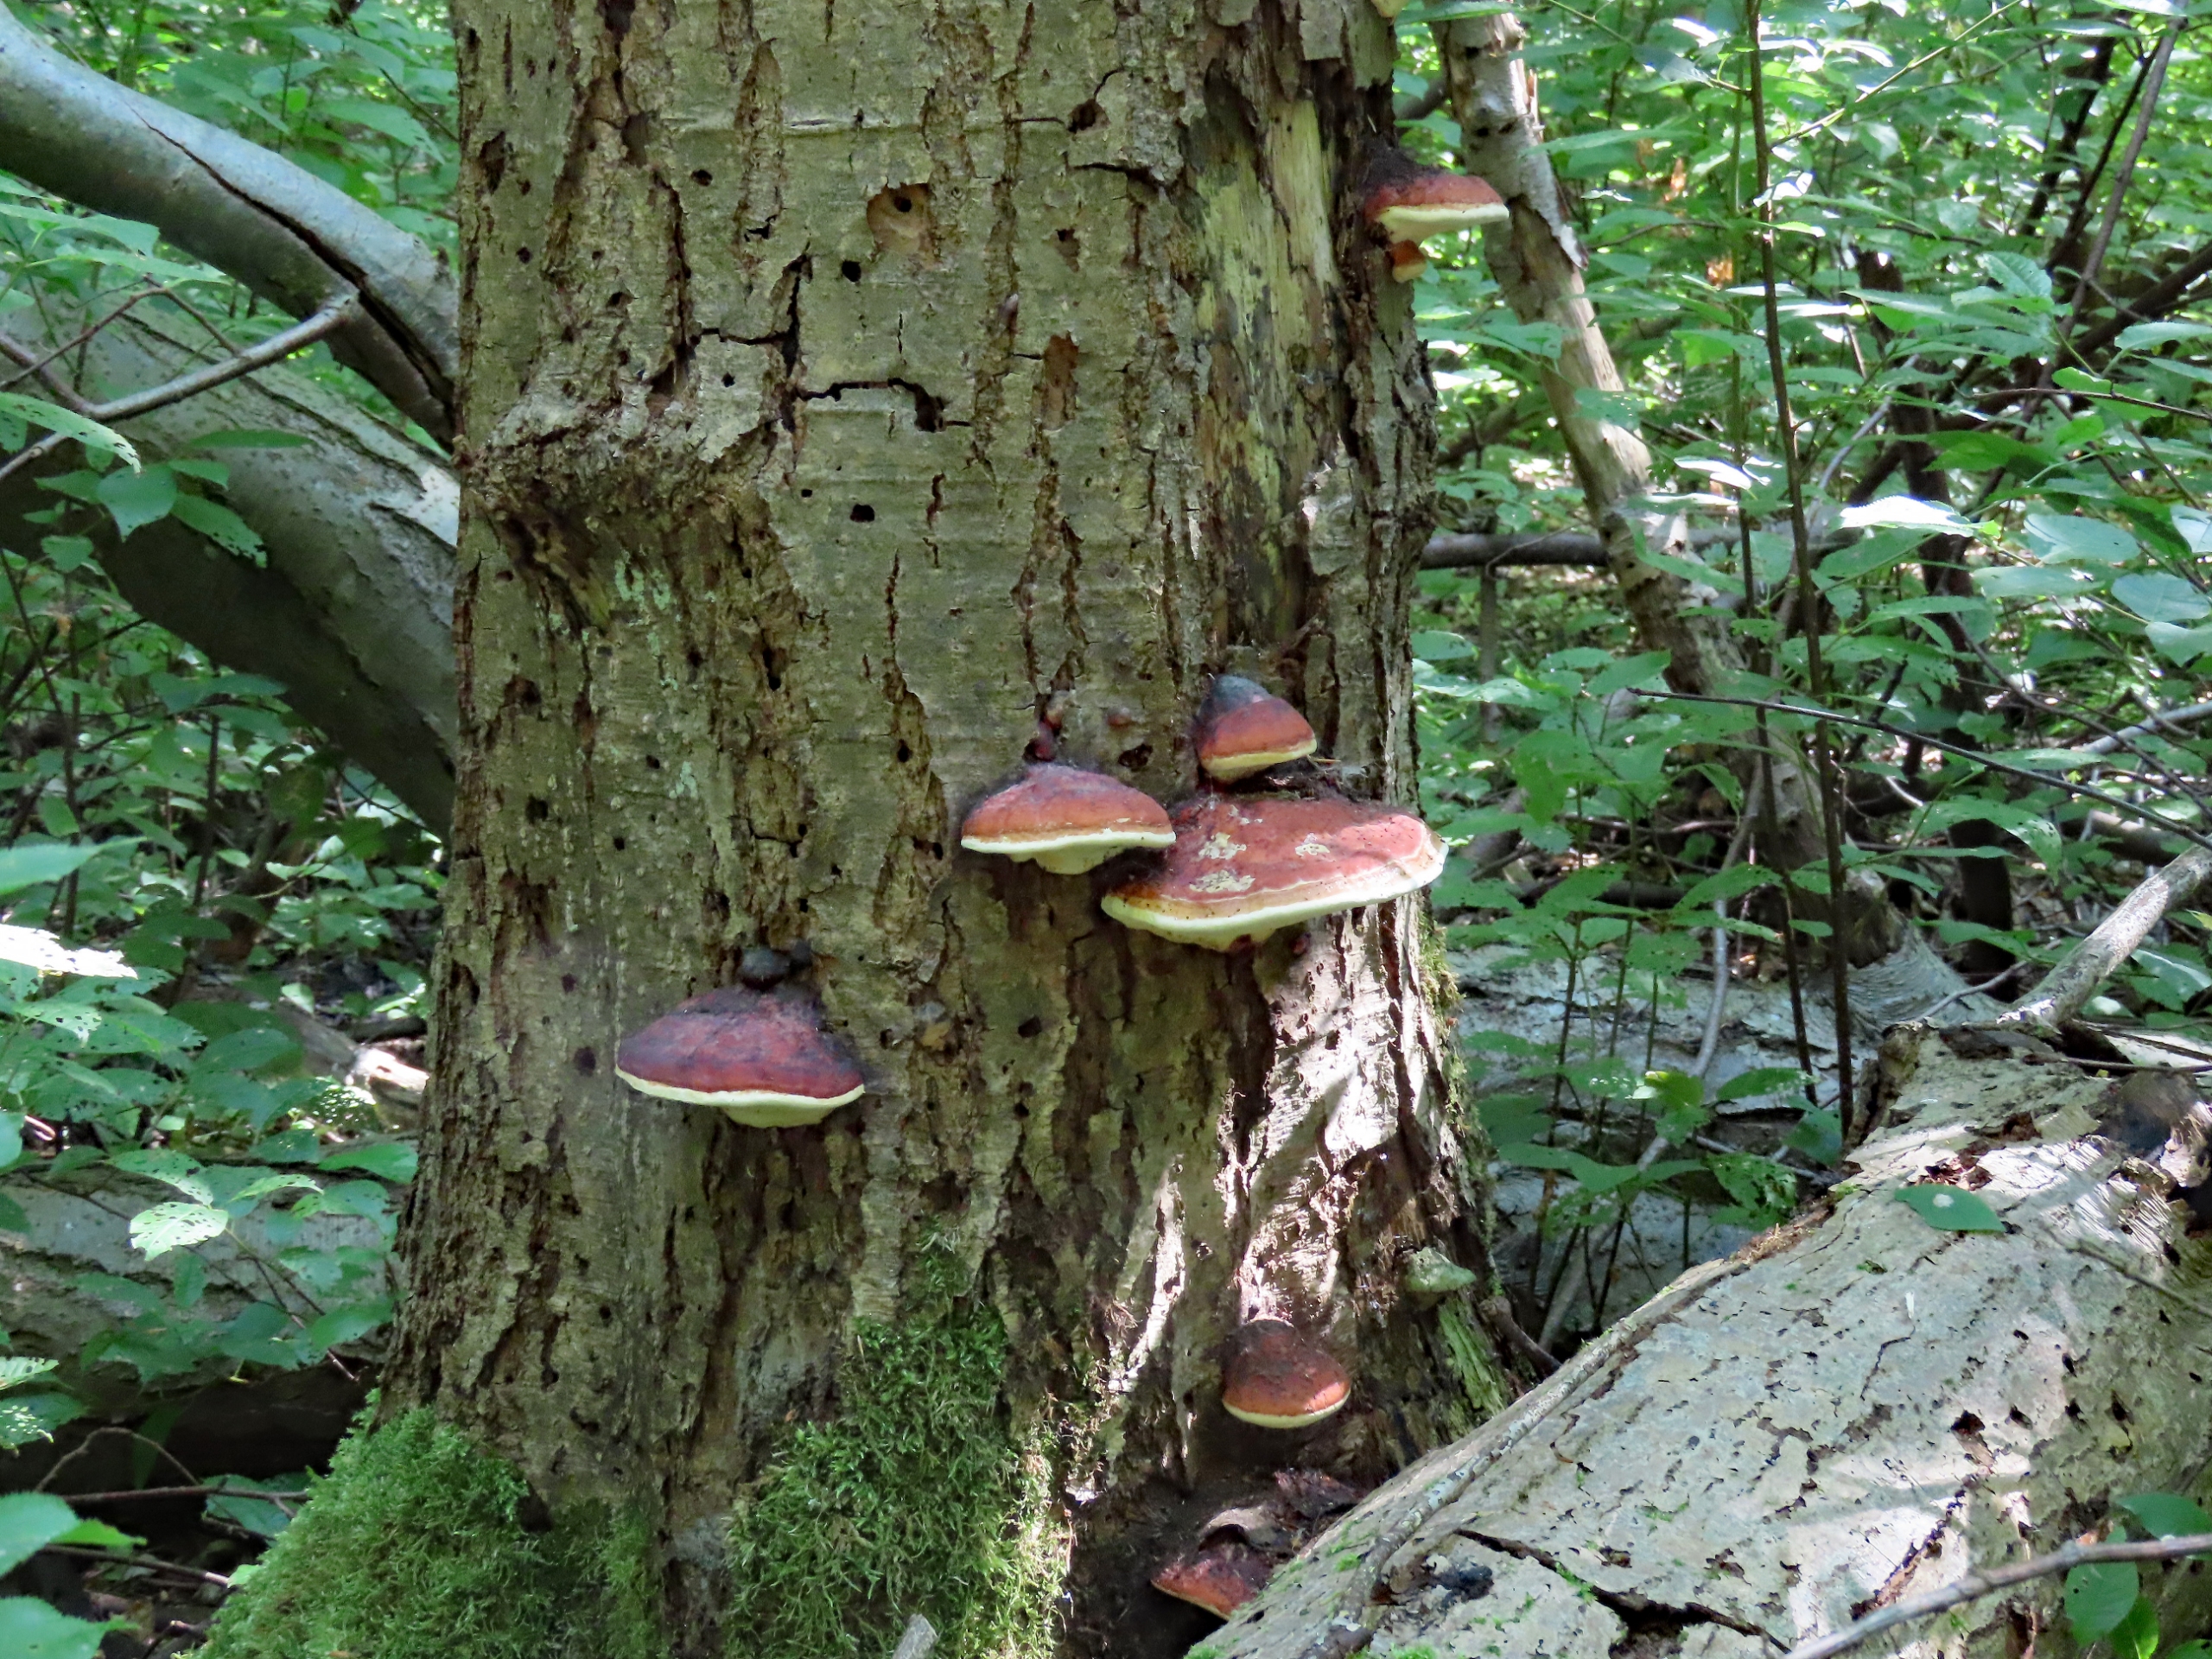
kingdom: Fungi
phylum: Basidiomycota
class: Agaricomycetes
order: Polyporales
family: Fomitopsidaceae
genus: Fomitopsis
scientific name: Fomitopsis pinicola
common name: Randbæltet hovporesvamp
